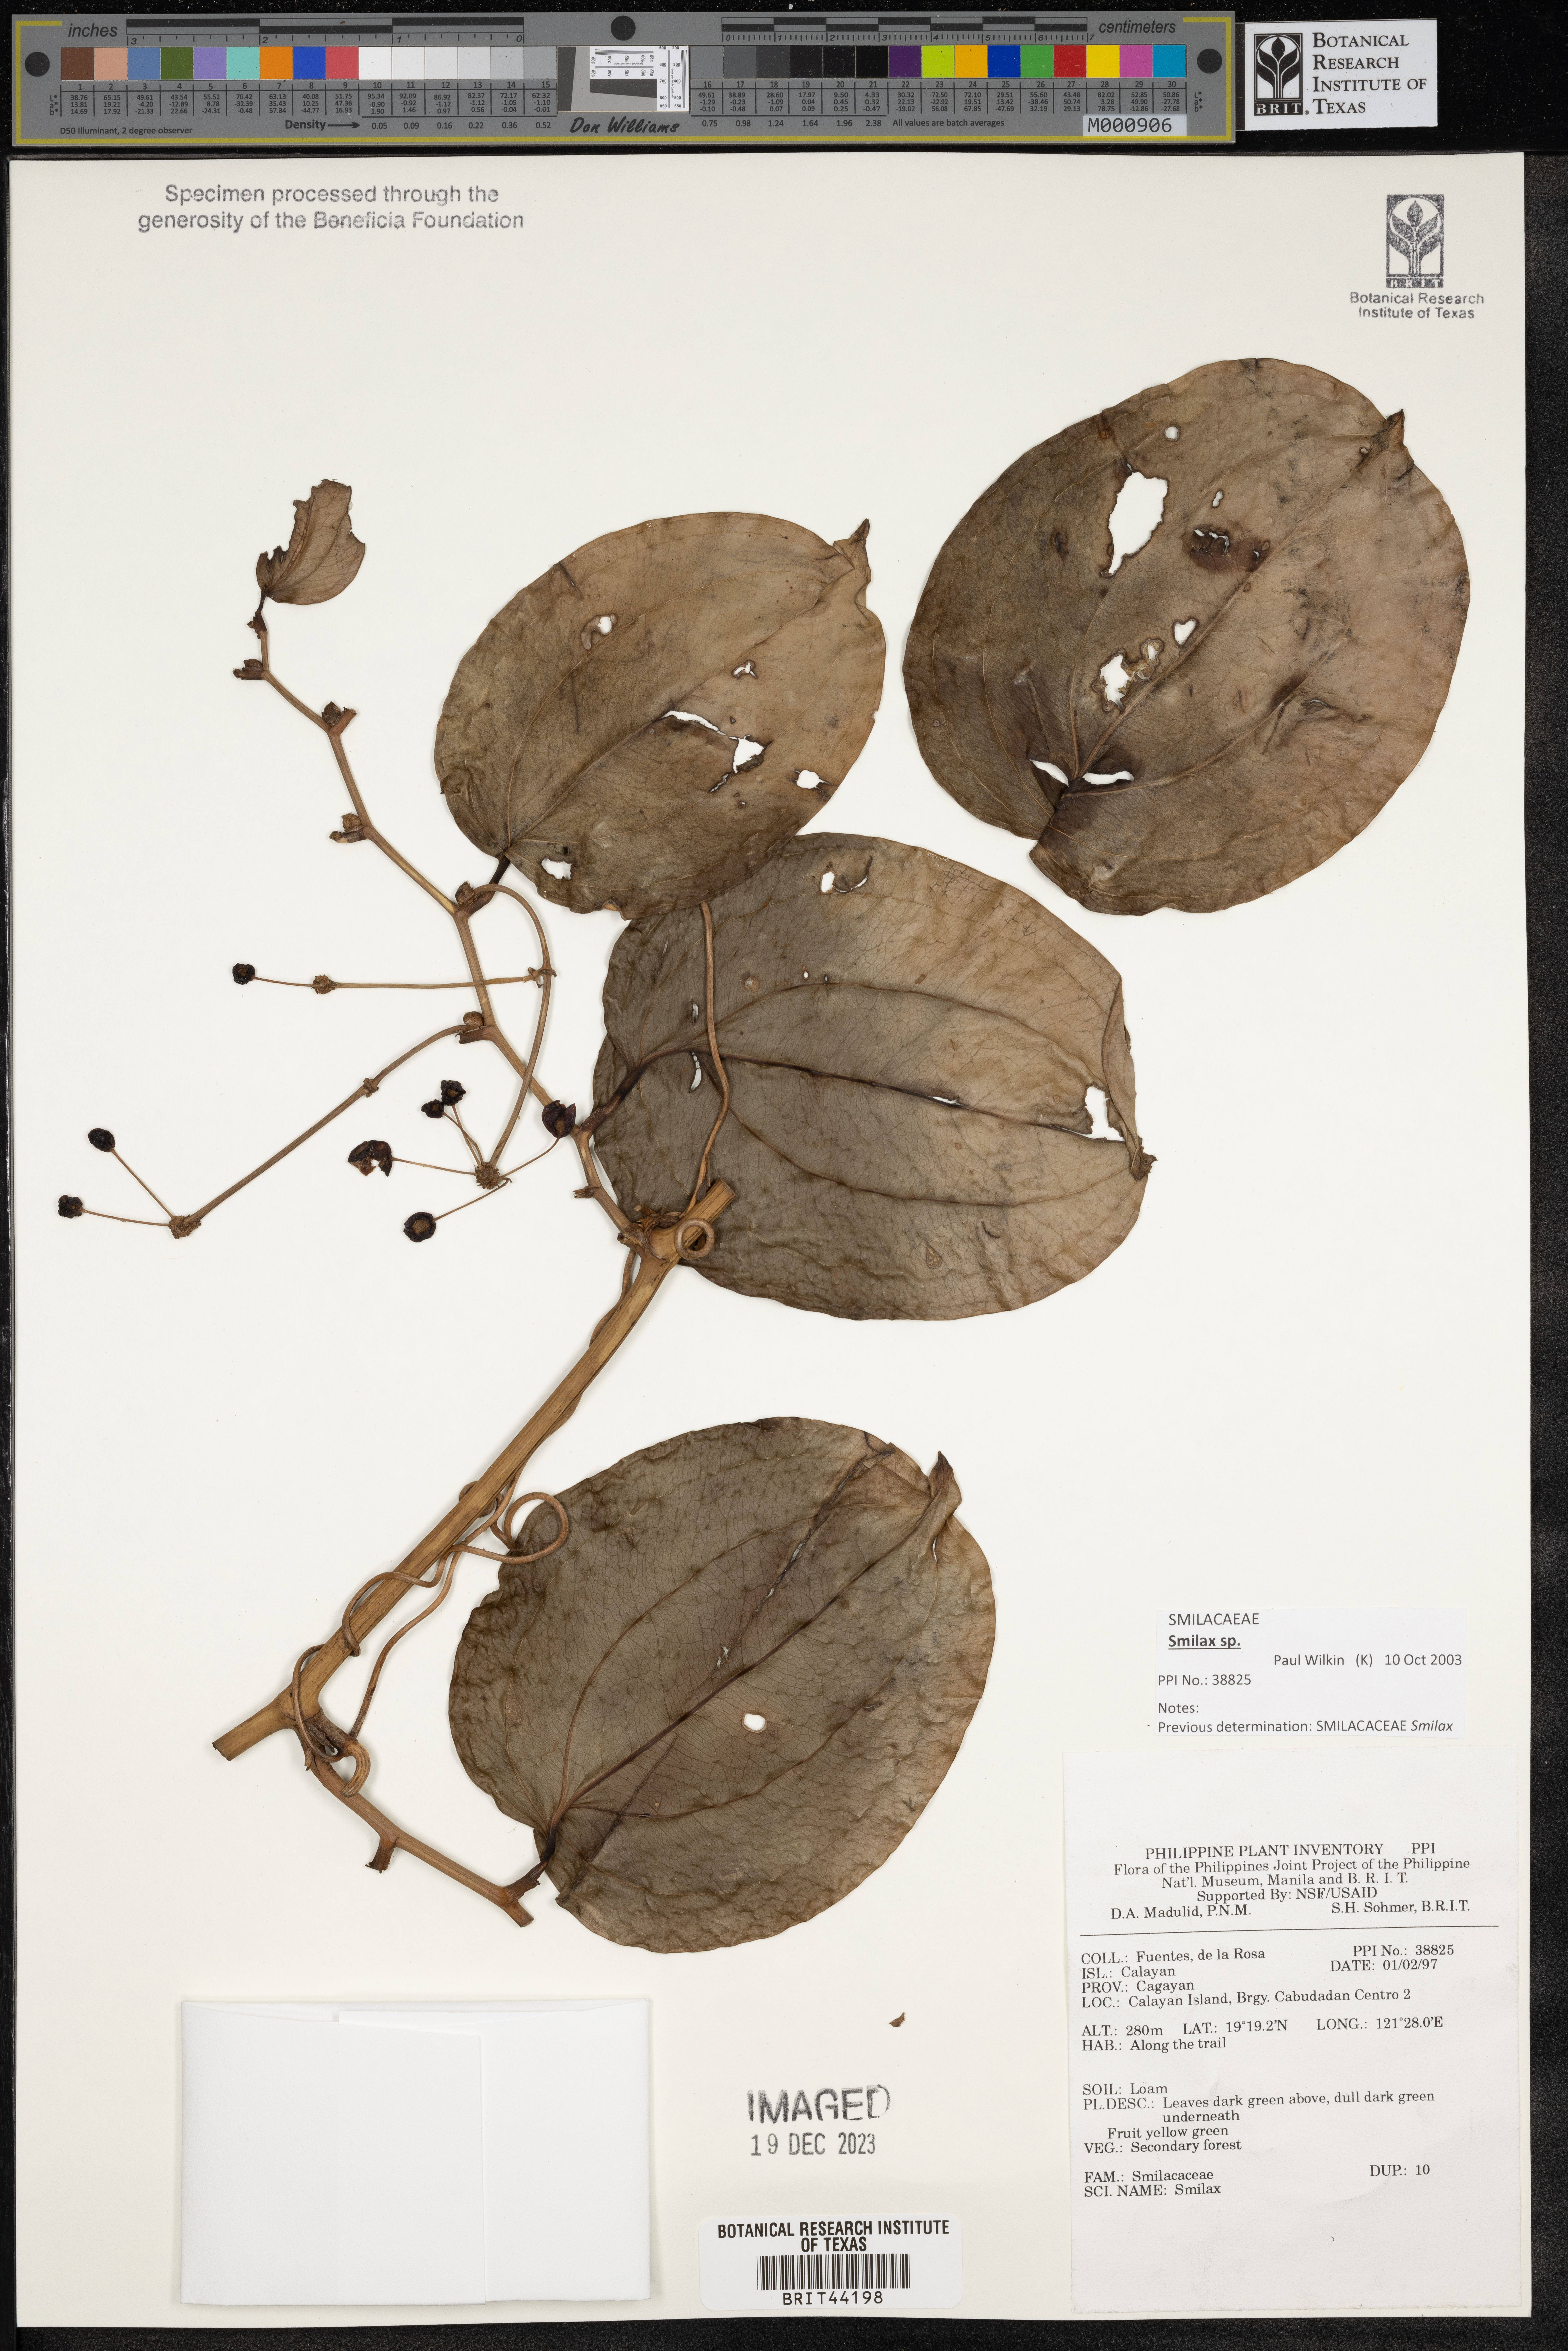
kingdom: Plantae
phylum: Tracheophyta
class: Liliopsida
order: Liliales
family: Smilacaceae
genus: Smilax
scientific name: Smilax
